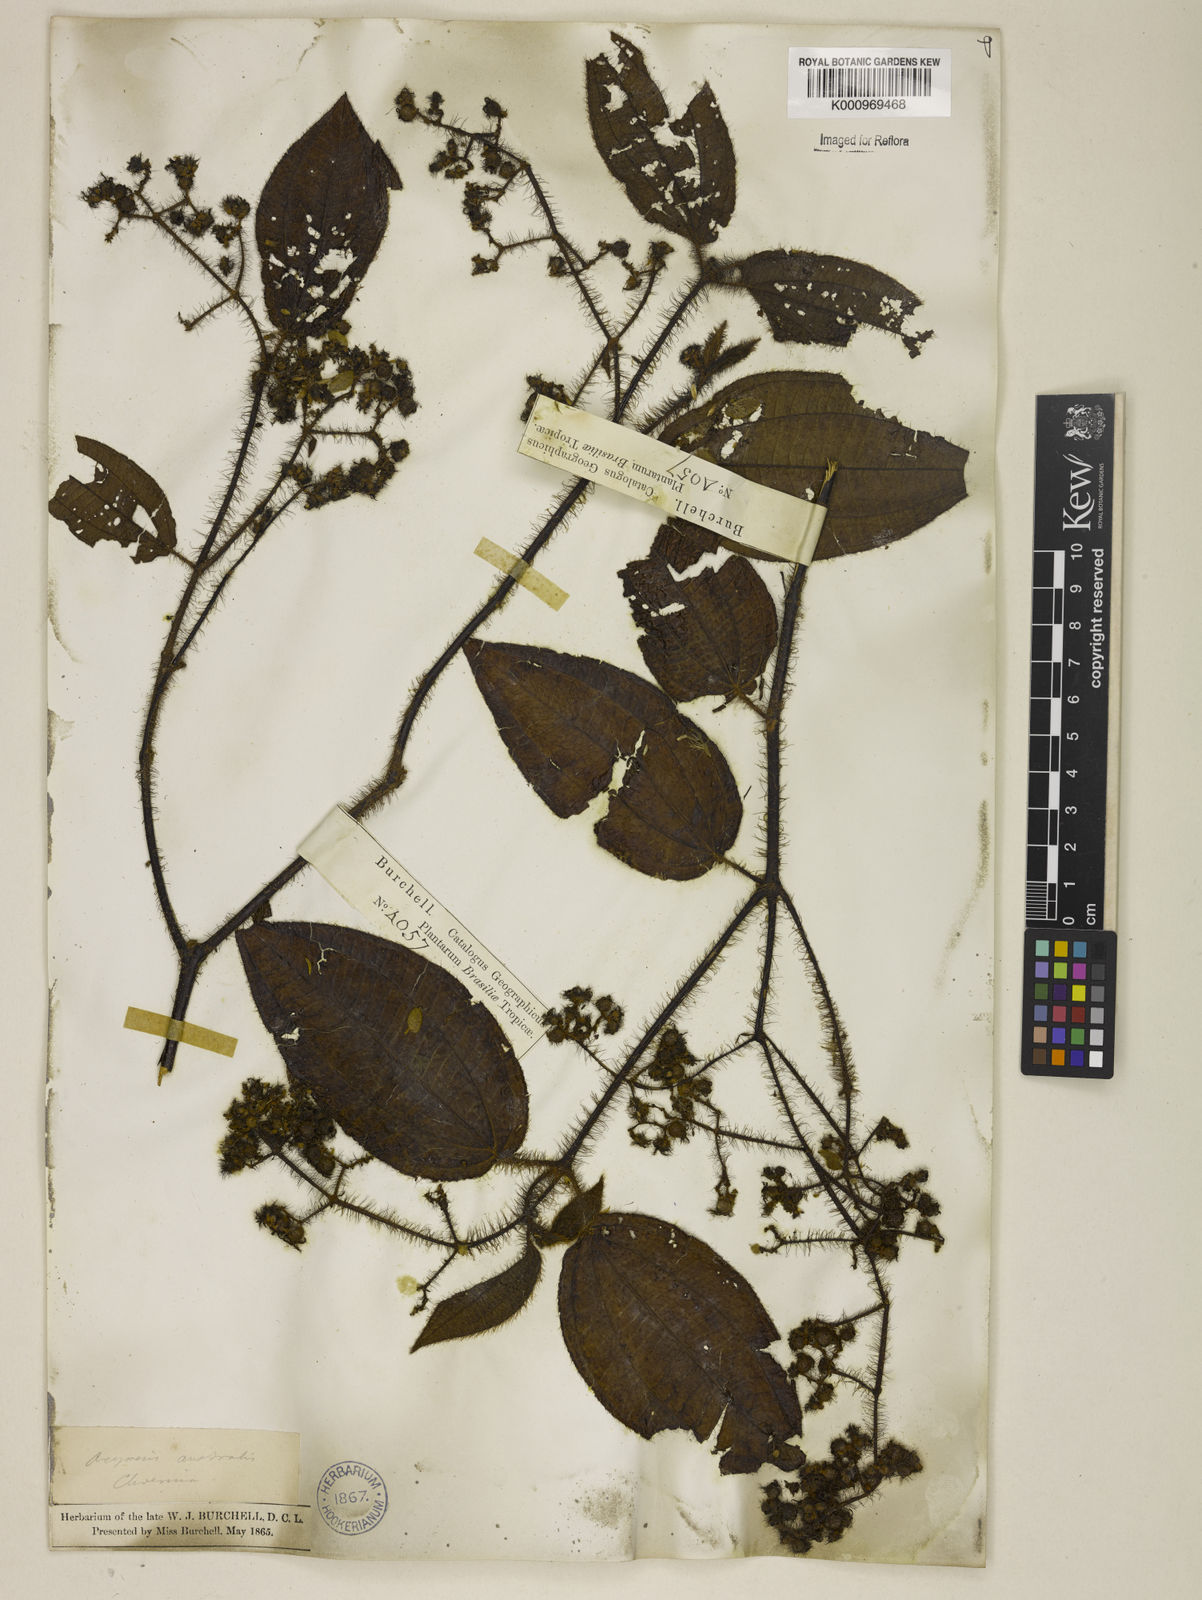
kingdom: Plantae
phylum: Tracheophyta
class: Magnoliopsida
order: Myrtales
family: Melastomataceae
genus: Miconia
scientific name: Miconia australis
